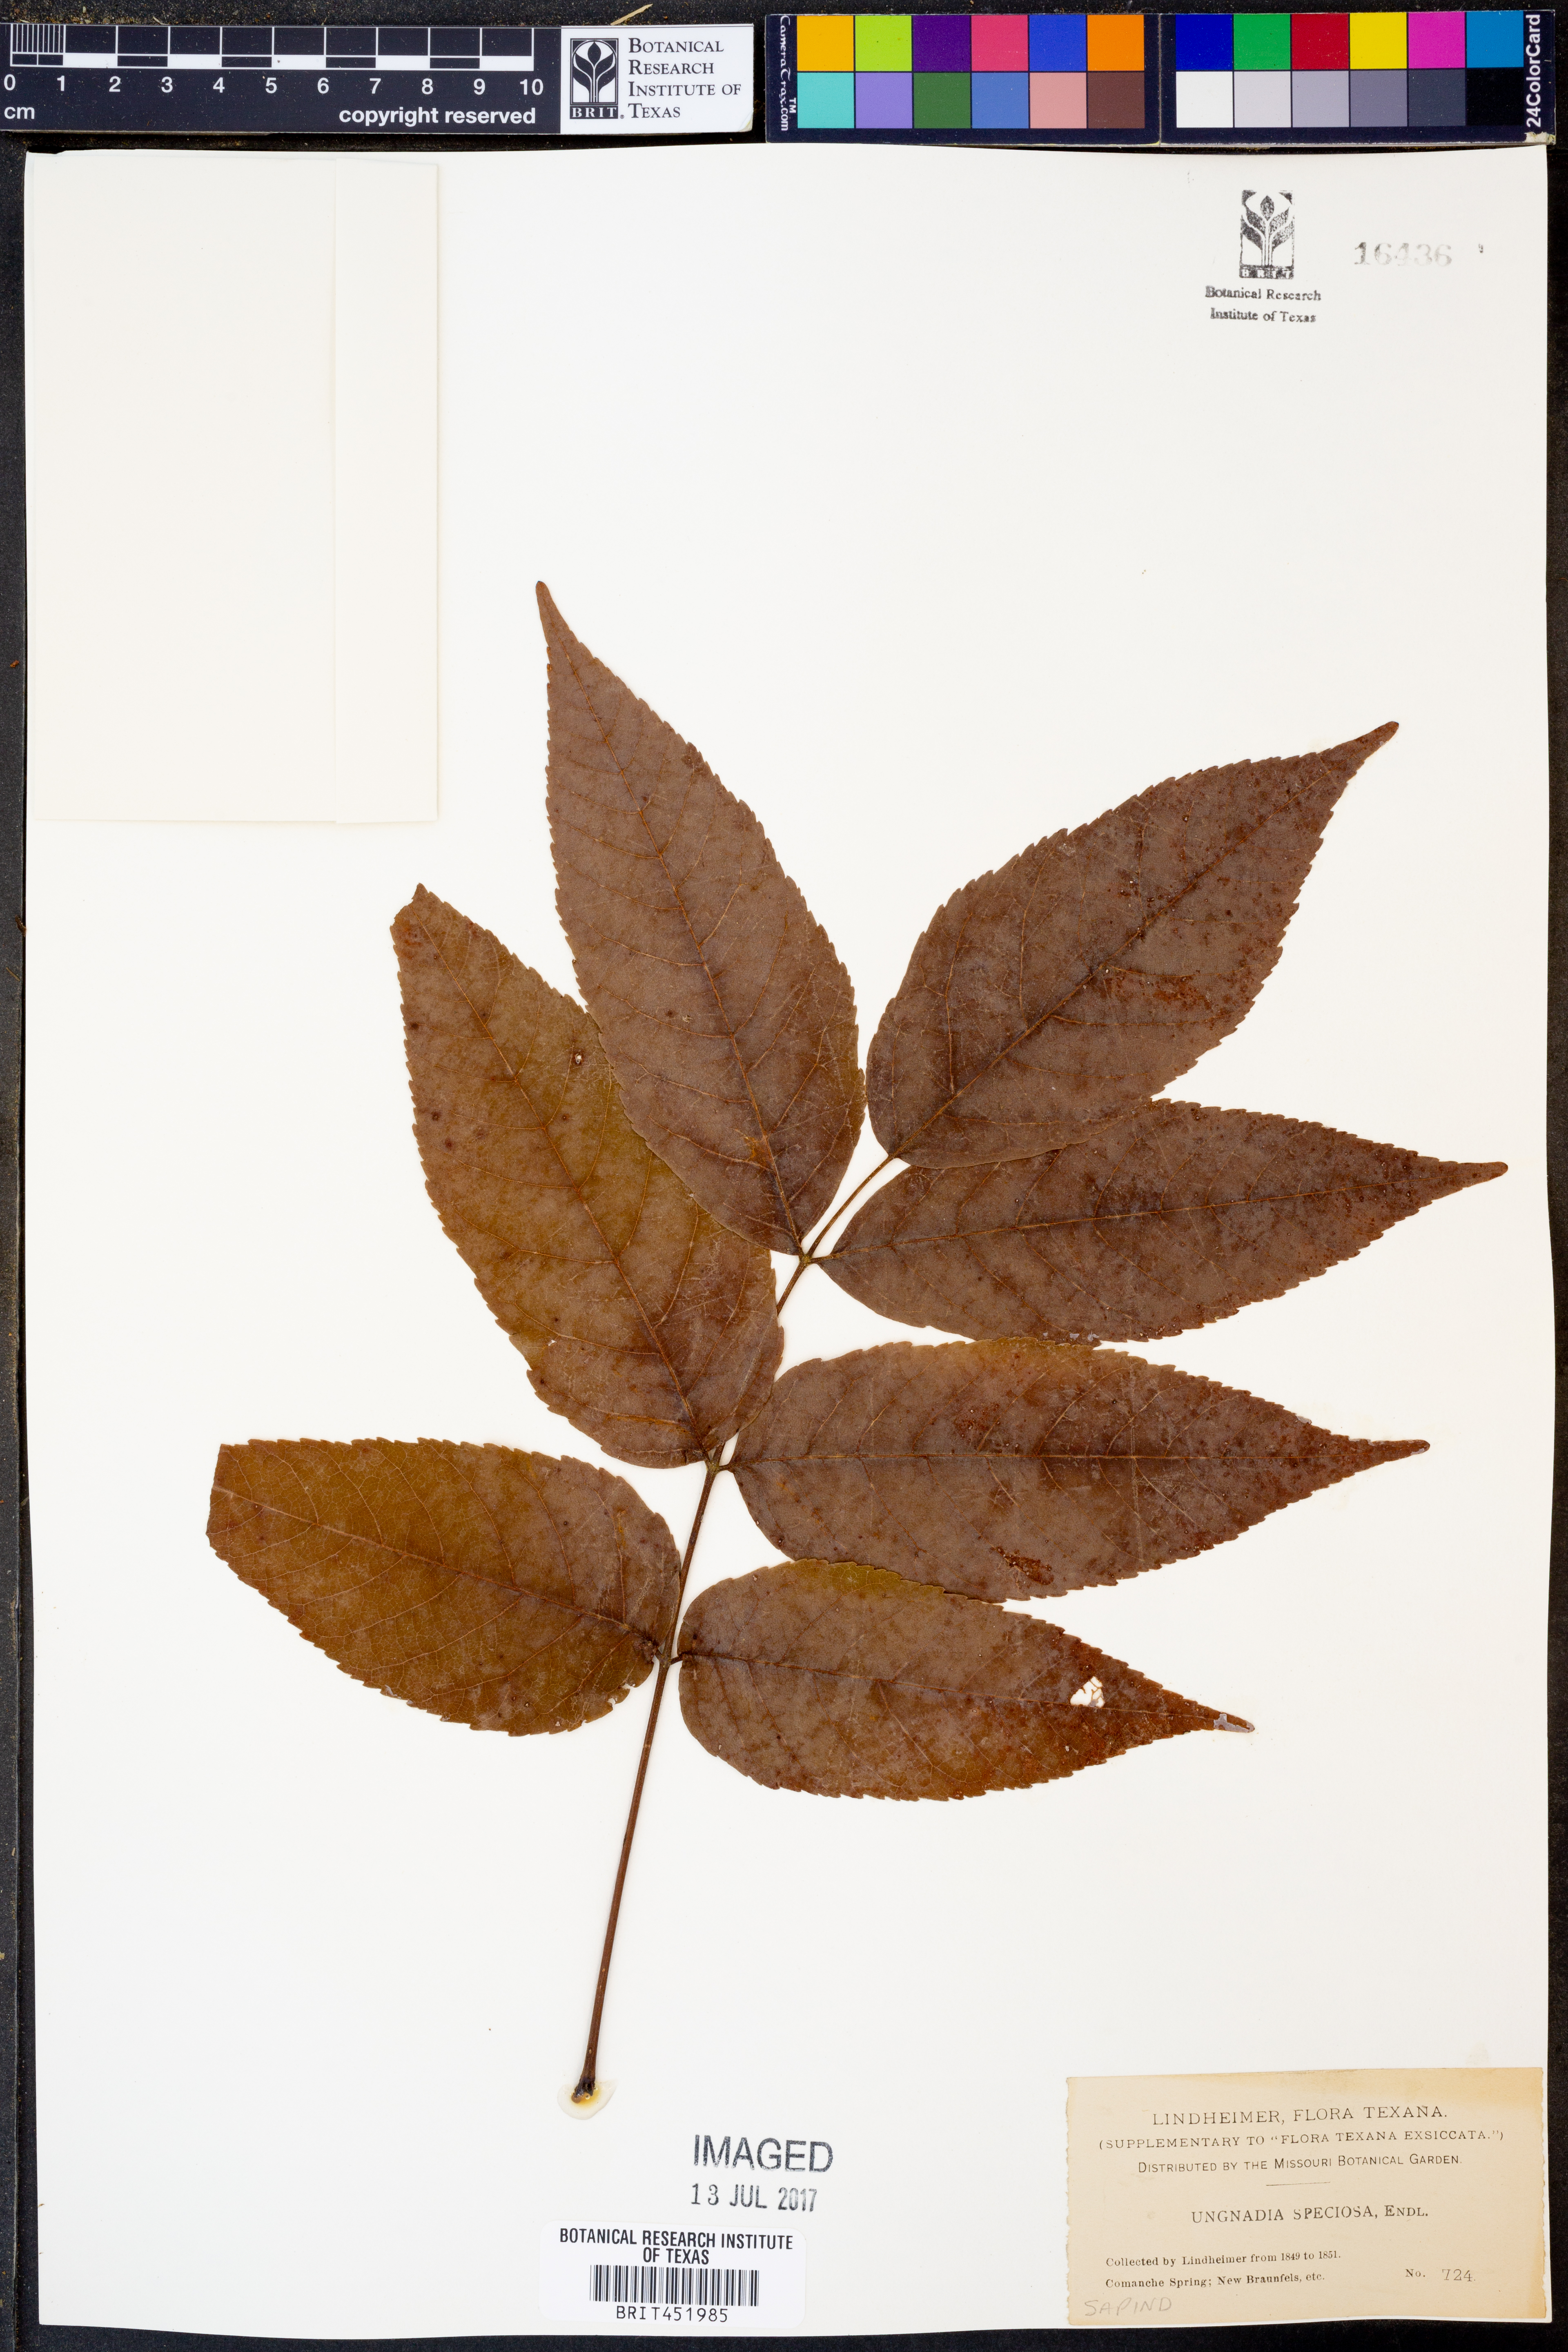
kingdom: Plantae
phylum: Tracheophyta
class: Magnoliopsida
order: Sapindales
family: Sapindaceae
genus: Ungnadia
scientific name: Ungnadia speciosa
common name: Texas-buckeye
